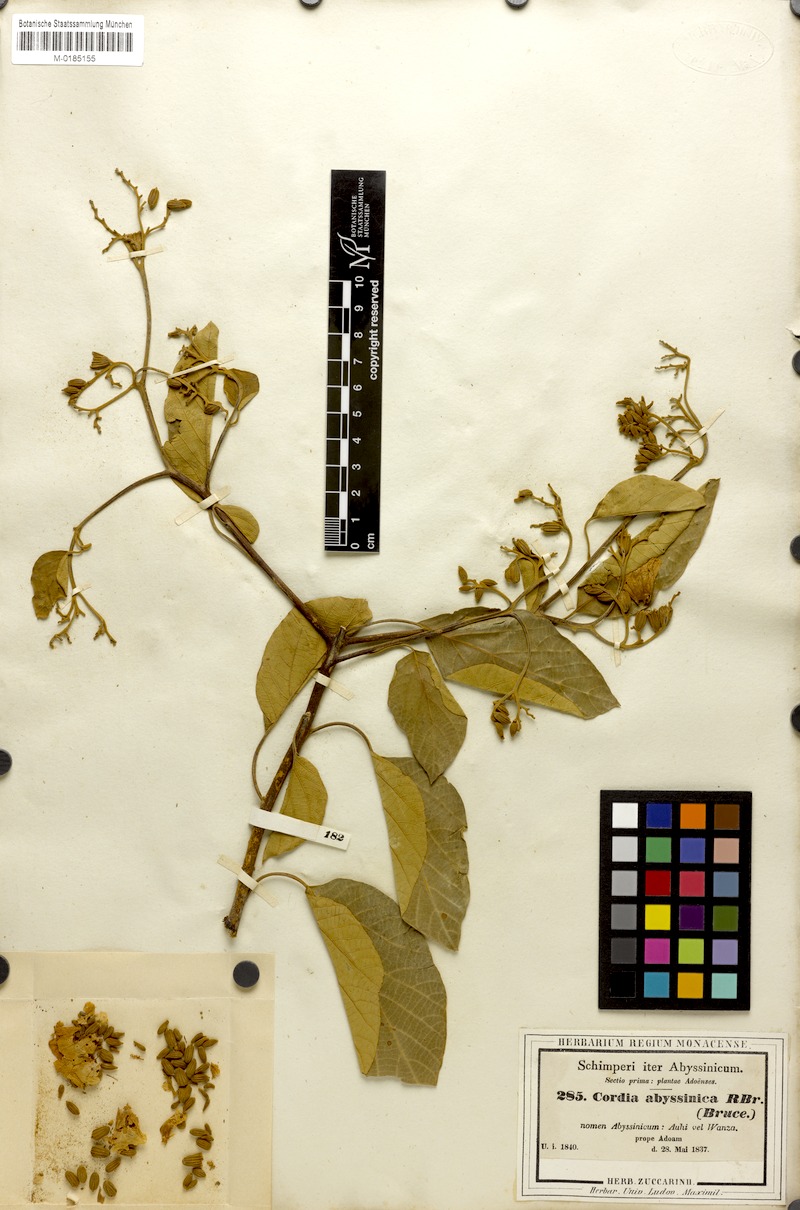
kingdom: Plantae
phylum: Tracheophyta
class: Magnoliopsida
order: Boraginales
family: Cordiaceae
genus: Cordia
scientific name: Cordia africana
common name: Large-leaved cordia
